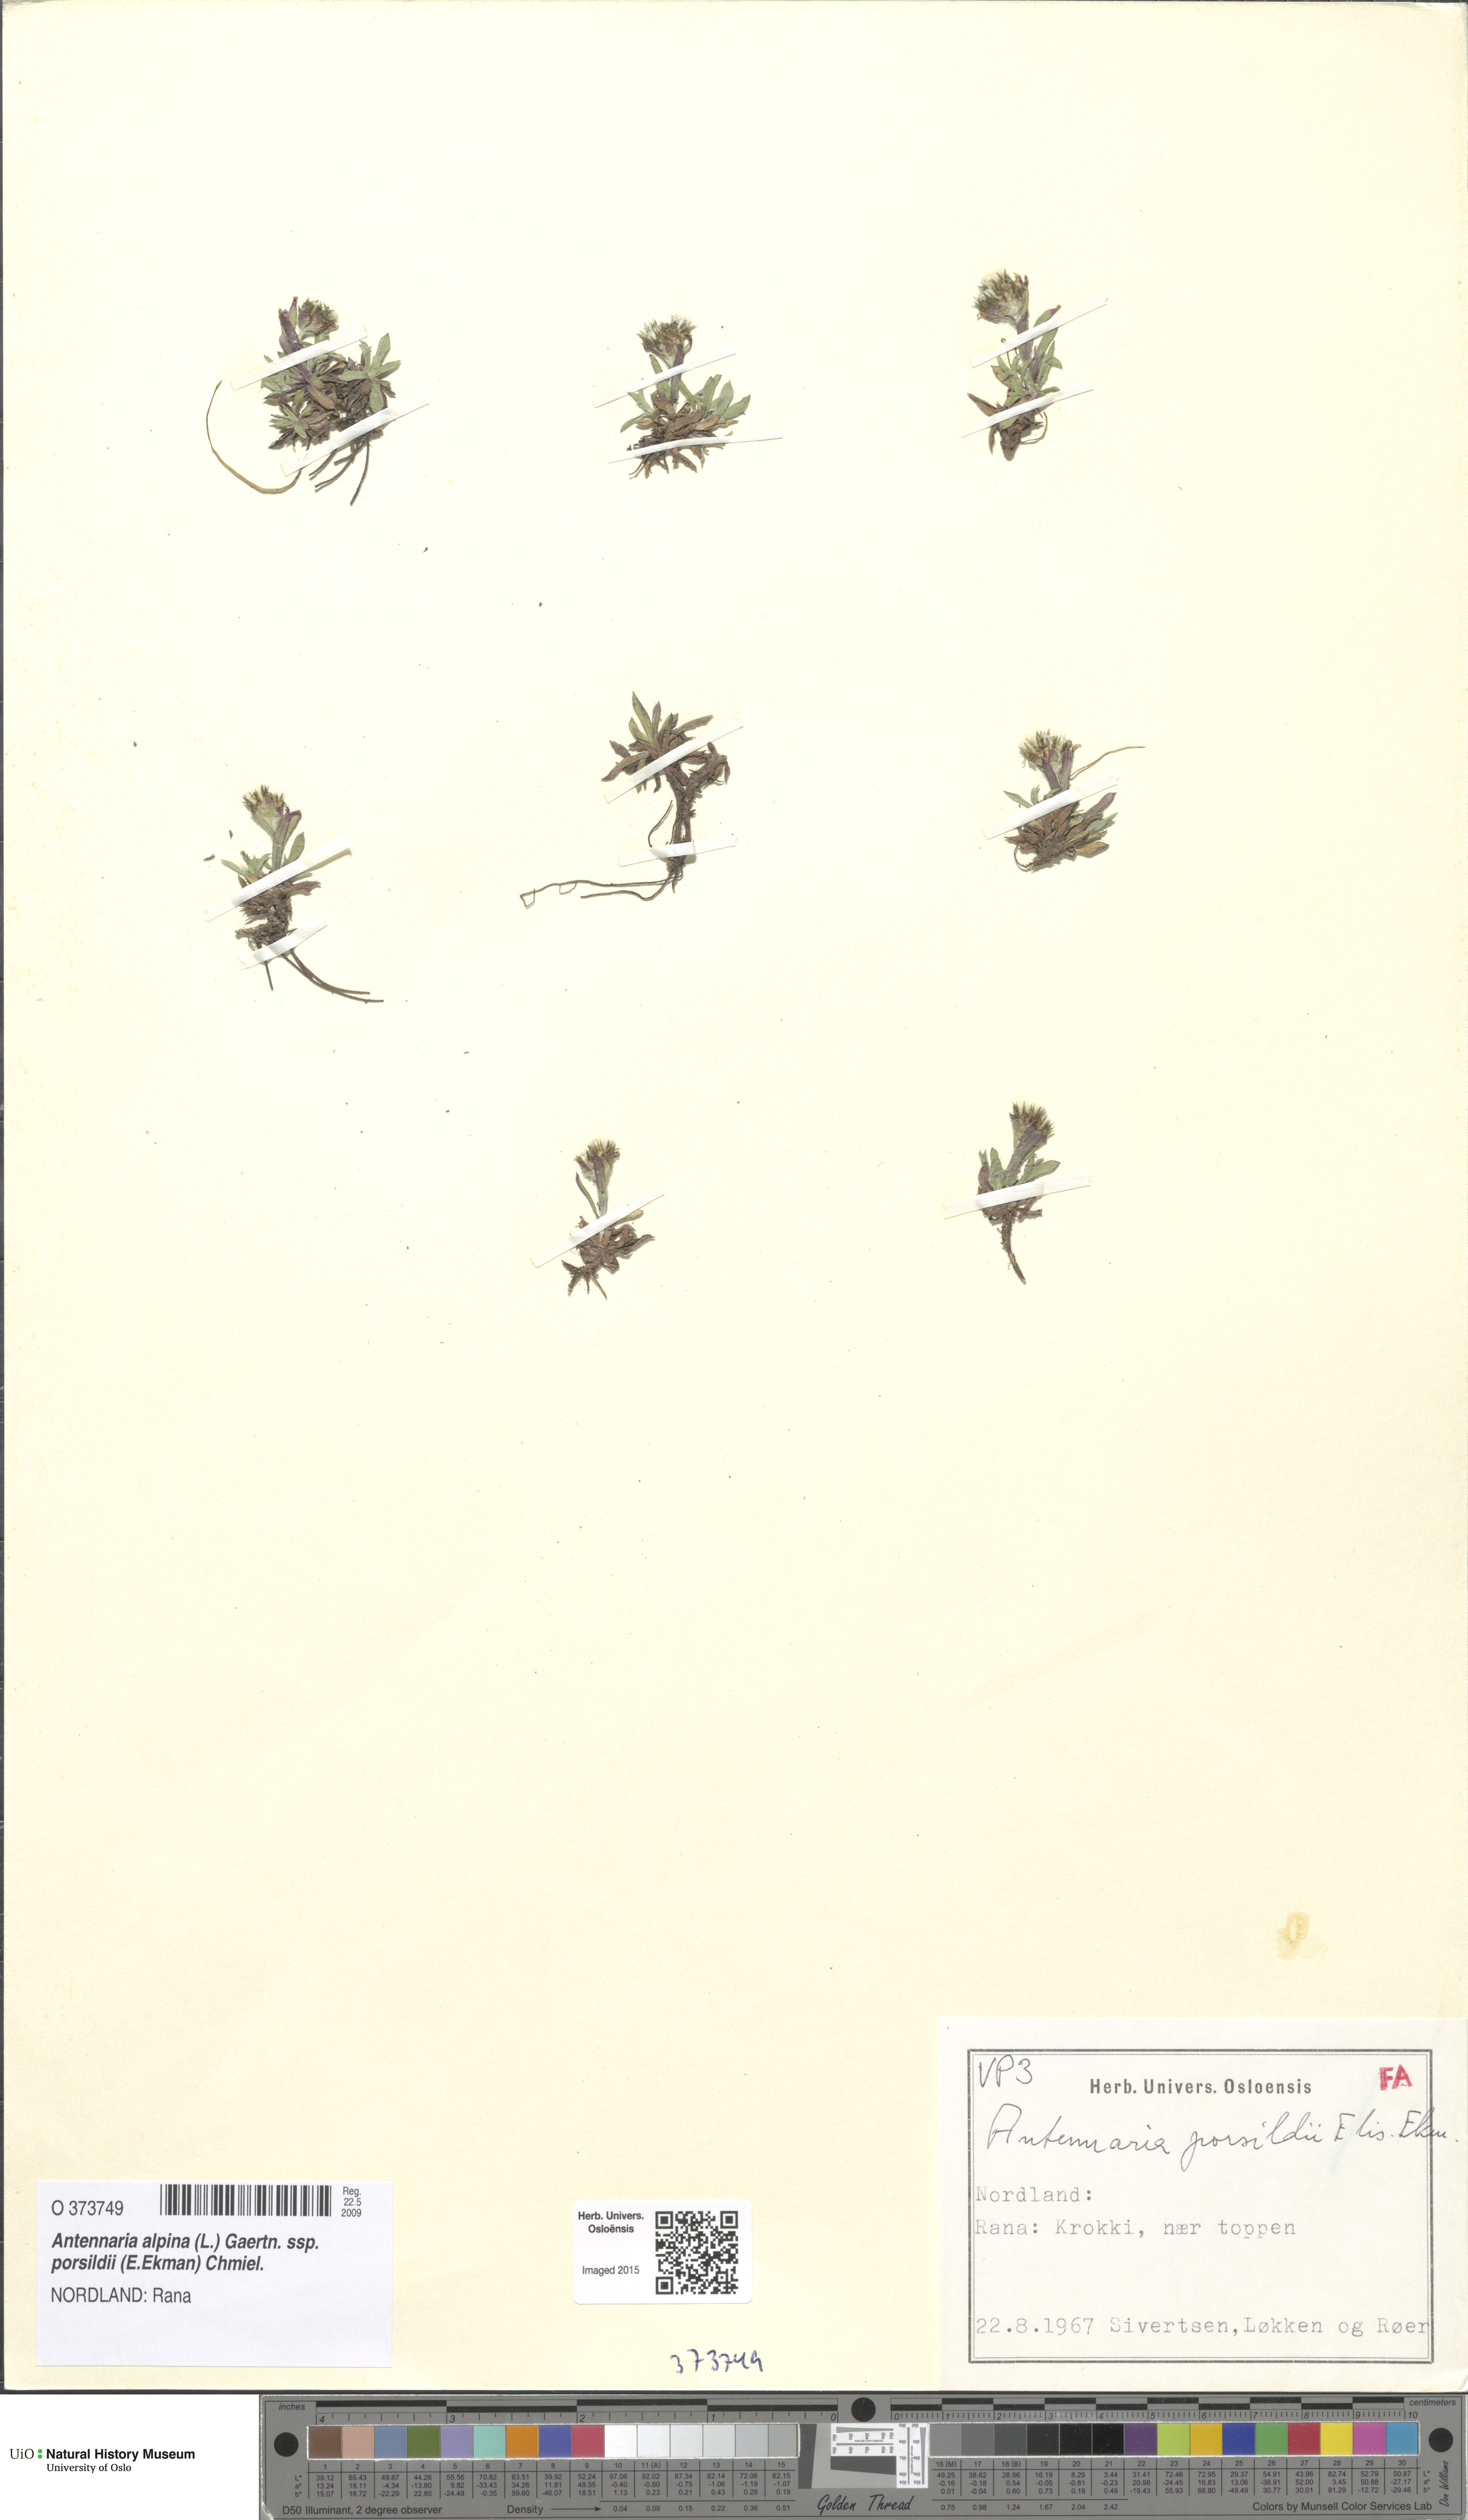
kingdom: Plantae
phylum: Tracheophyta
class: Magnoliopsida
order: Asterales
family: Asteraceae
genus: Antennaria
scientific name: Antennaria porsildii
